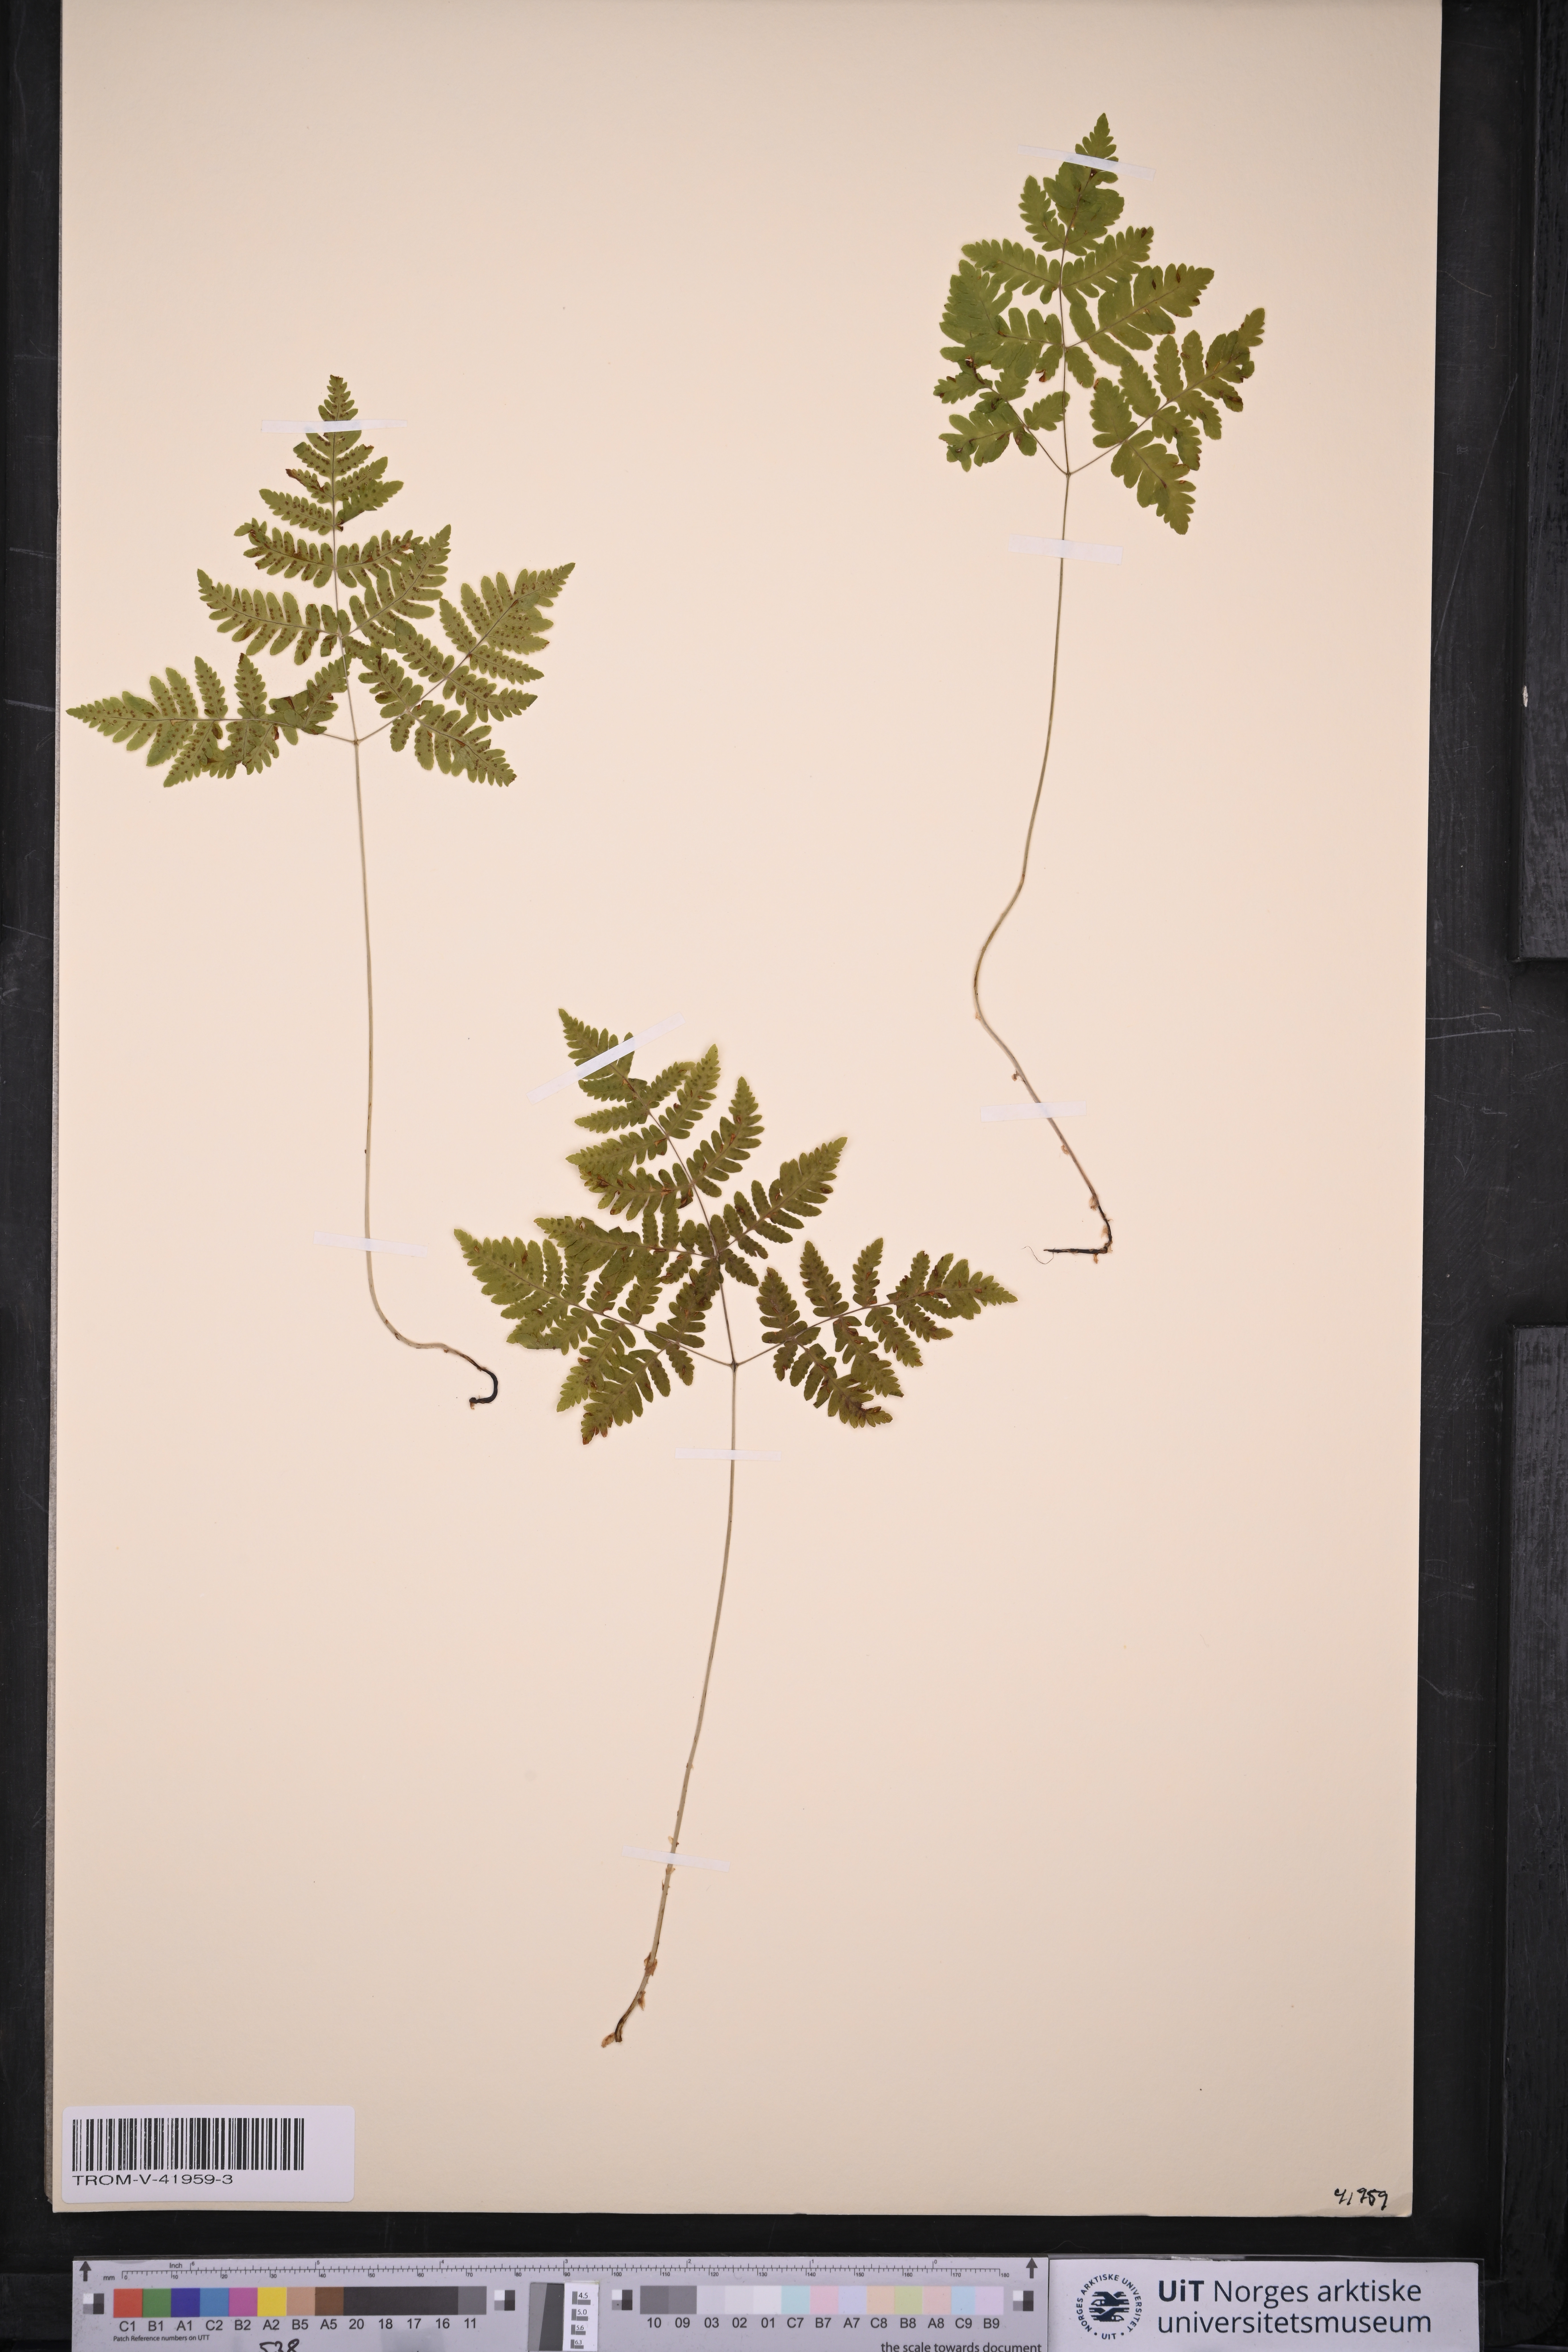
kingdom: Plantae
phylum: Tracheophyta
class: Polypodiopsida
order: Polypodiales
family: Cystopteridaceae
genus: Gymnocarpium
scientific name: Gymnocarpium dryopteris
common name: Oak fern
